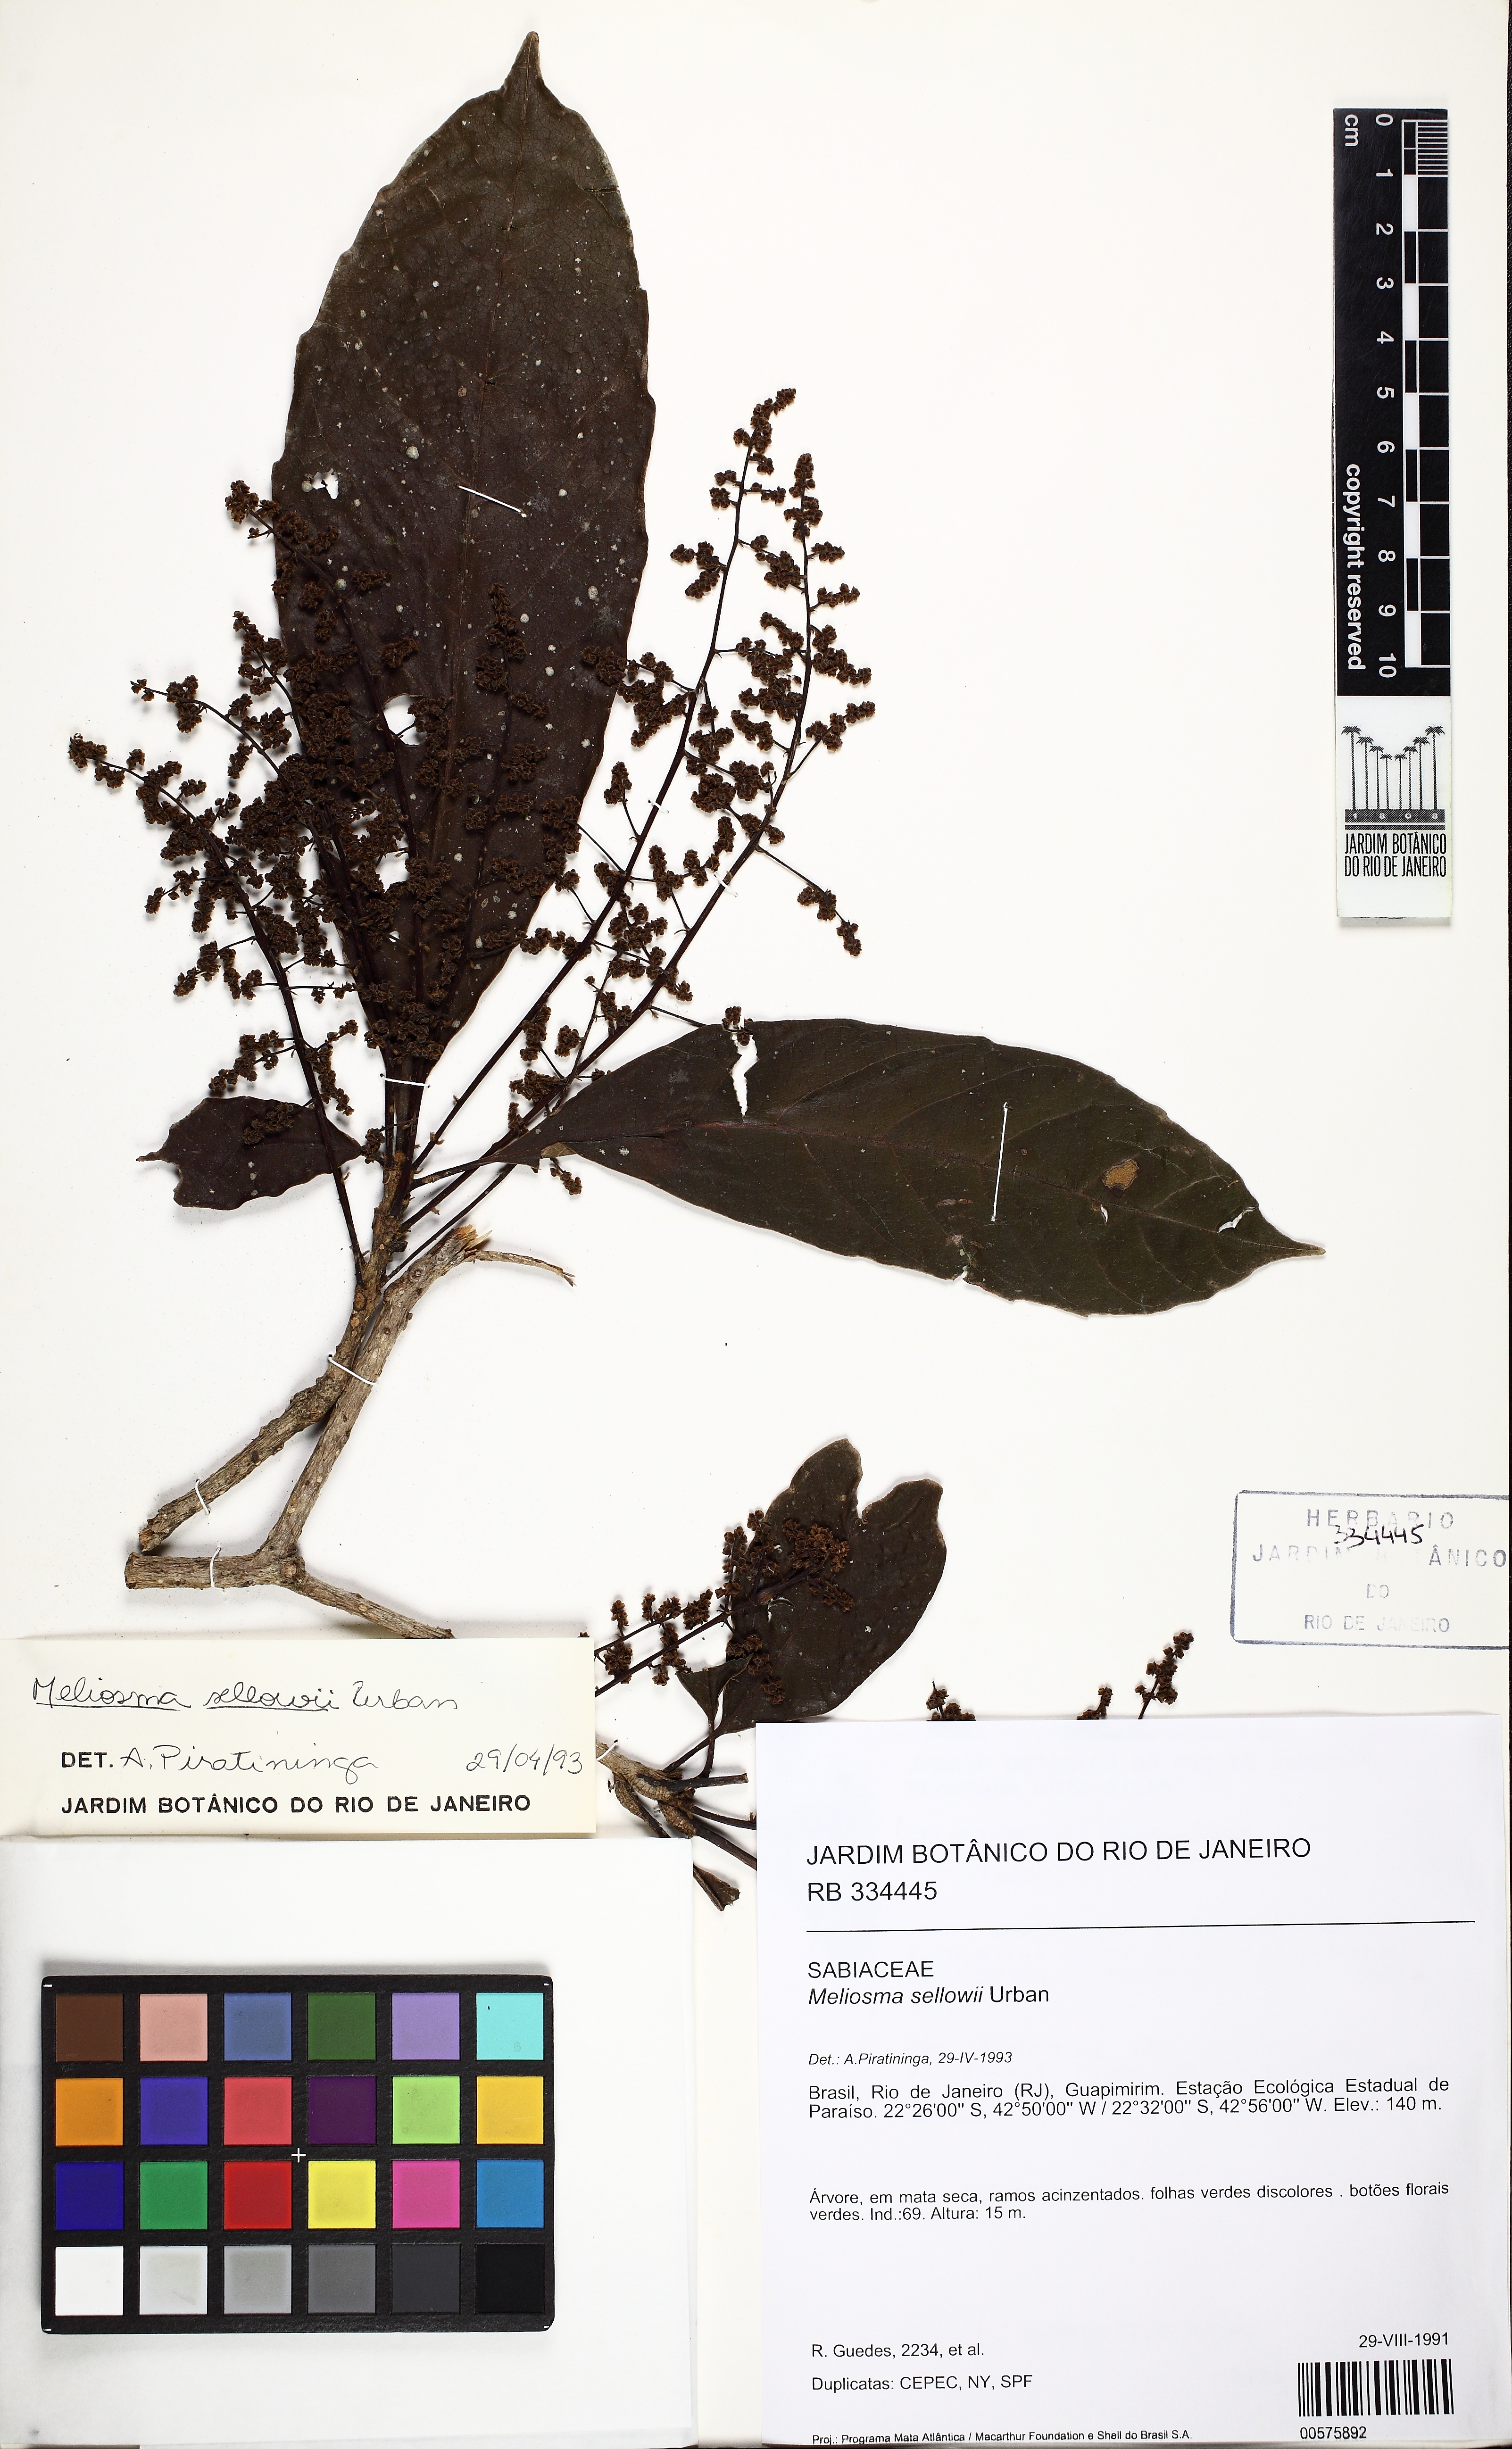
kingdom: Plantae
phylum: Tracheophyta
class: Magnoliopsida
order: Proteales
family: Sabiaceae
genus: Meliosma
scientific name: Meliosma sellowii
